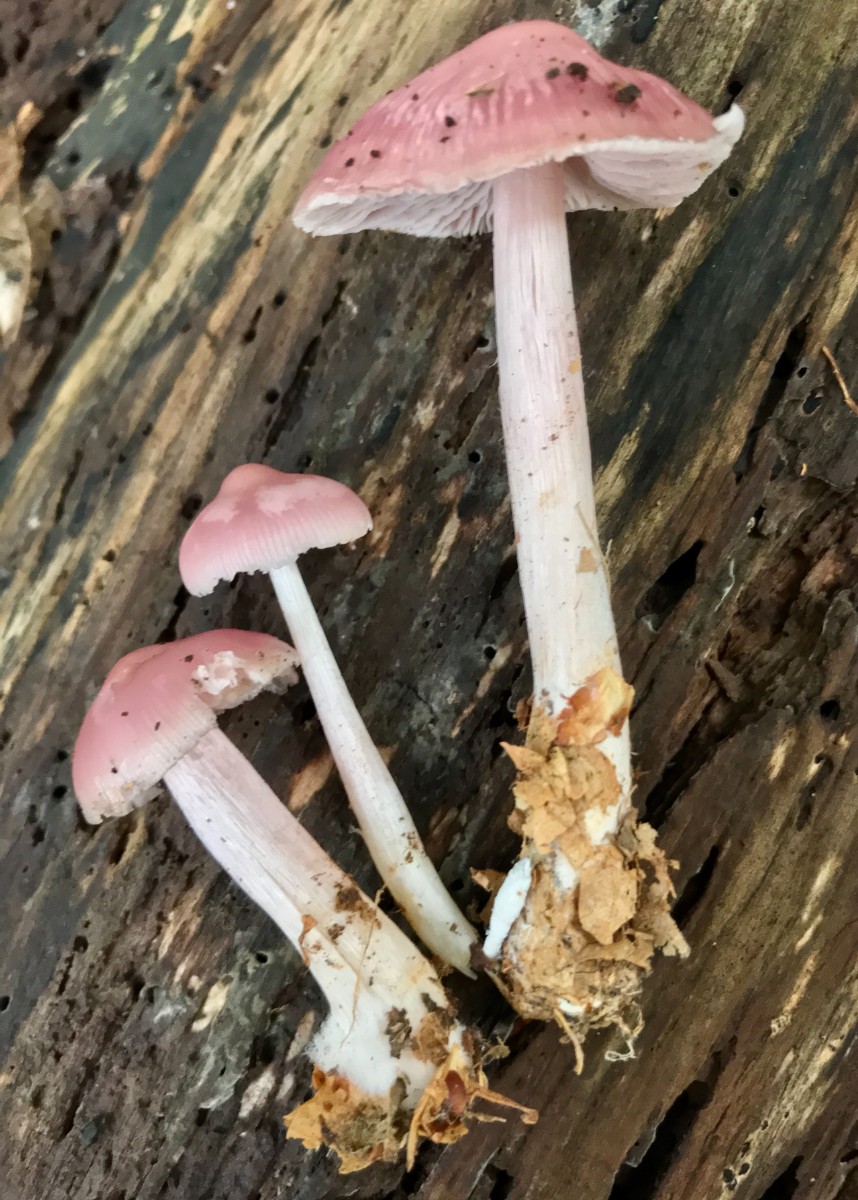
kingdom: Fungi
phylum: Basidiomycota
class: Agaricomycetes
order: Agaricales
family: Mycenaceae
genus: Mycena
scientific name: Mycena rosea
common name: rosa huesvamp
